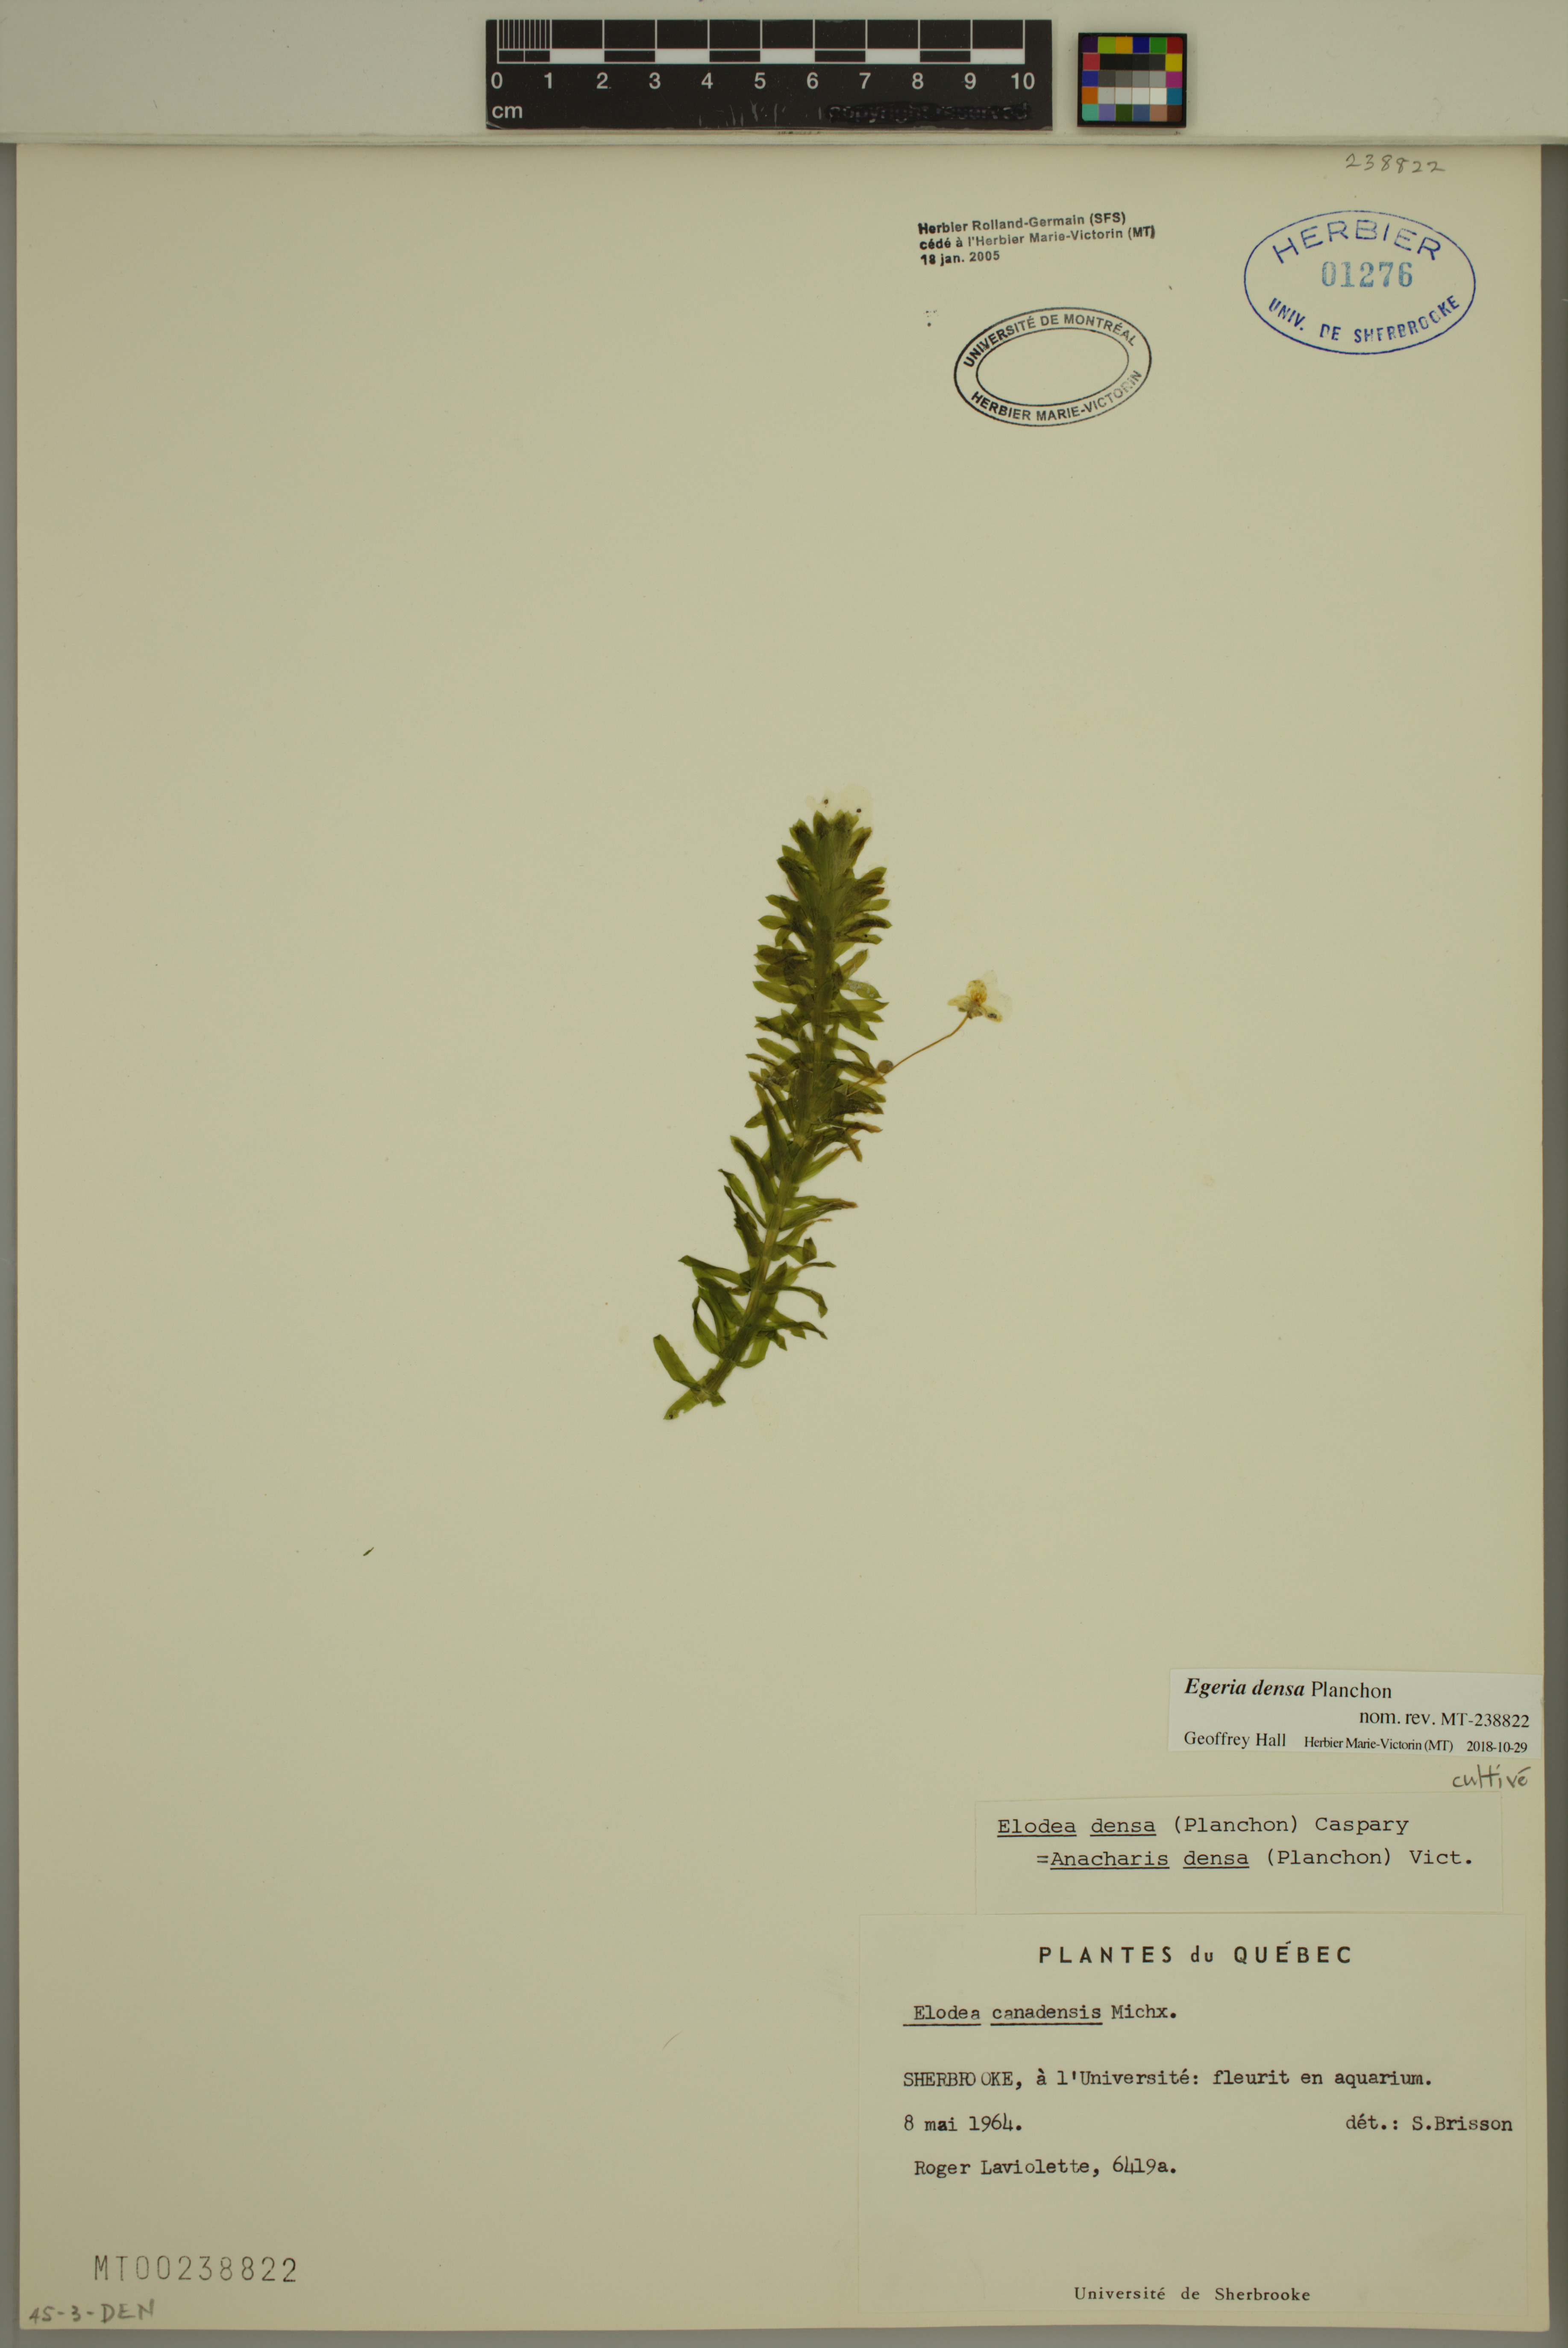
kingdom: Plantae
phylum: Tracheophyta
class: Liliopsida
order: Alismatales
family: Hydrocharitaceae
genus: Elodea
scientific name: Elodea densa
